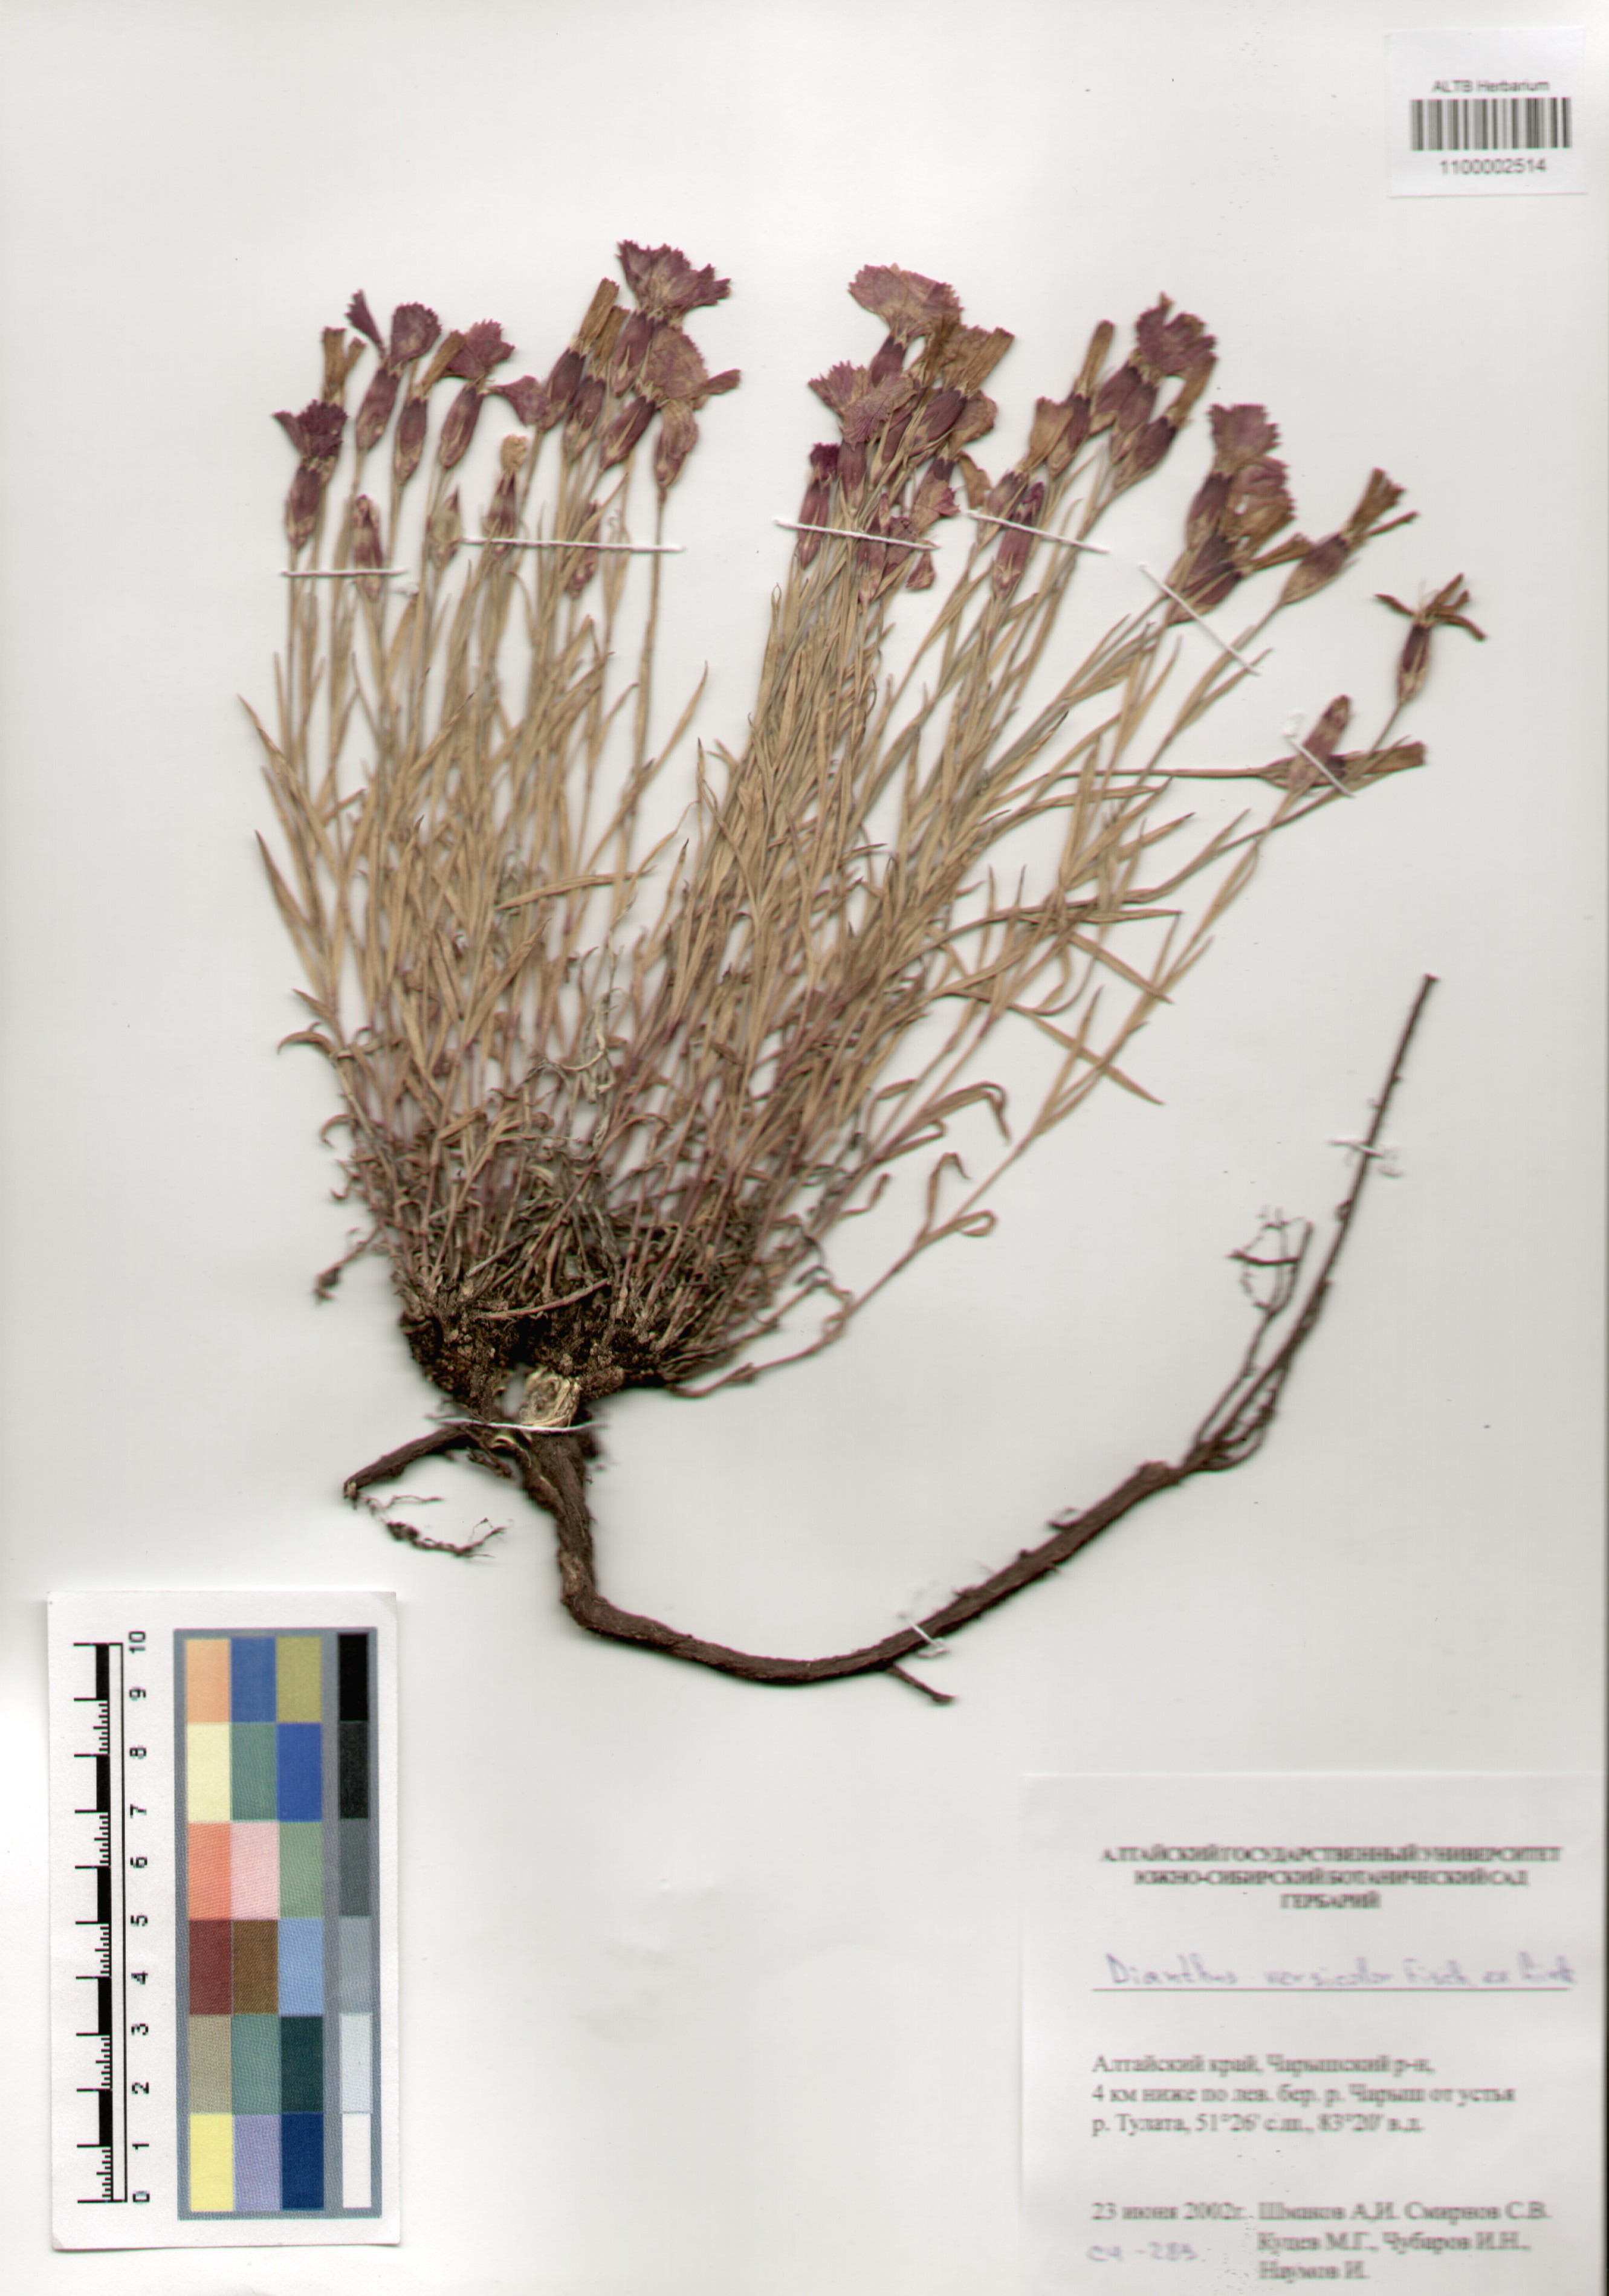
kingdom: Plantae
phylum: Tracheophyta
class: Magnoliopsida
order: Caryophyllales
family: Caryophyllaceae
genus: Dianthus
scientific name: Dianthus chinensis
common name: Rainbow pink
